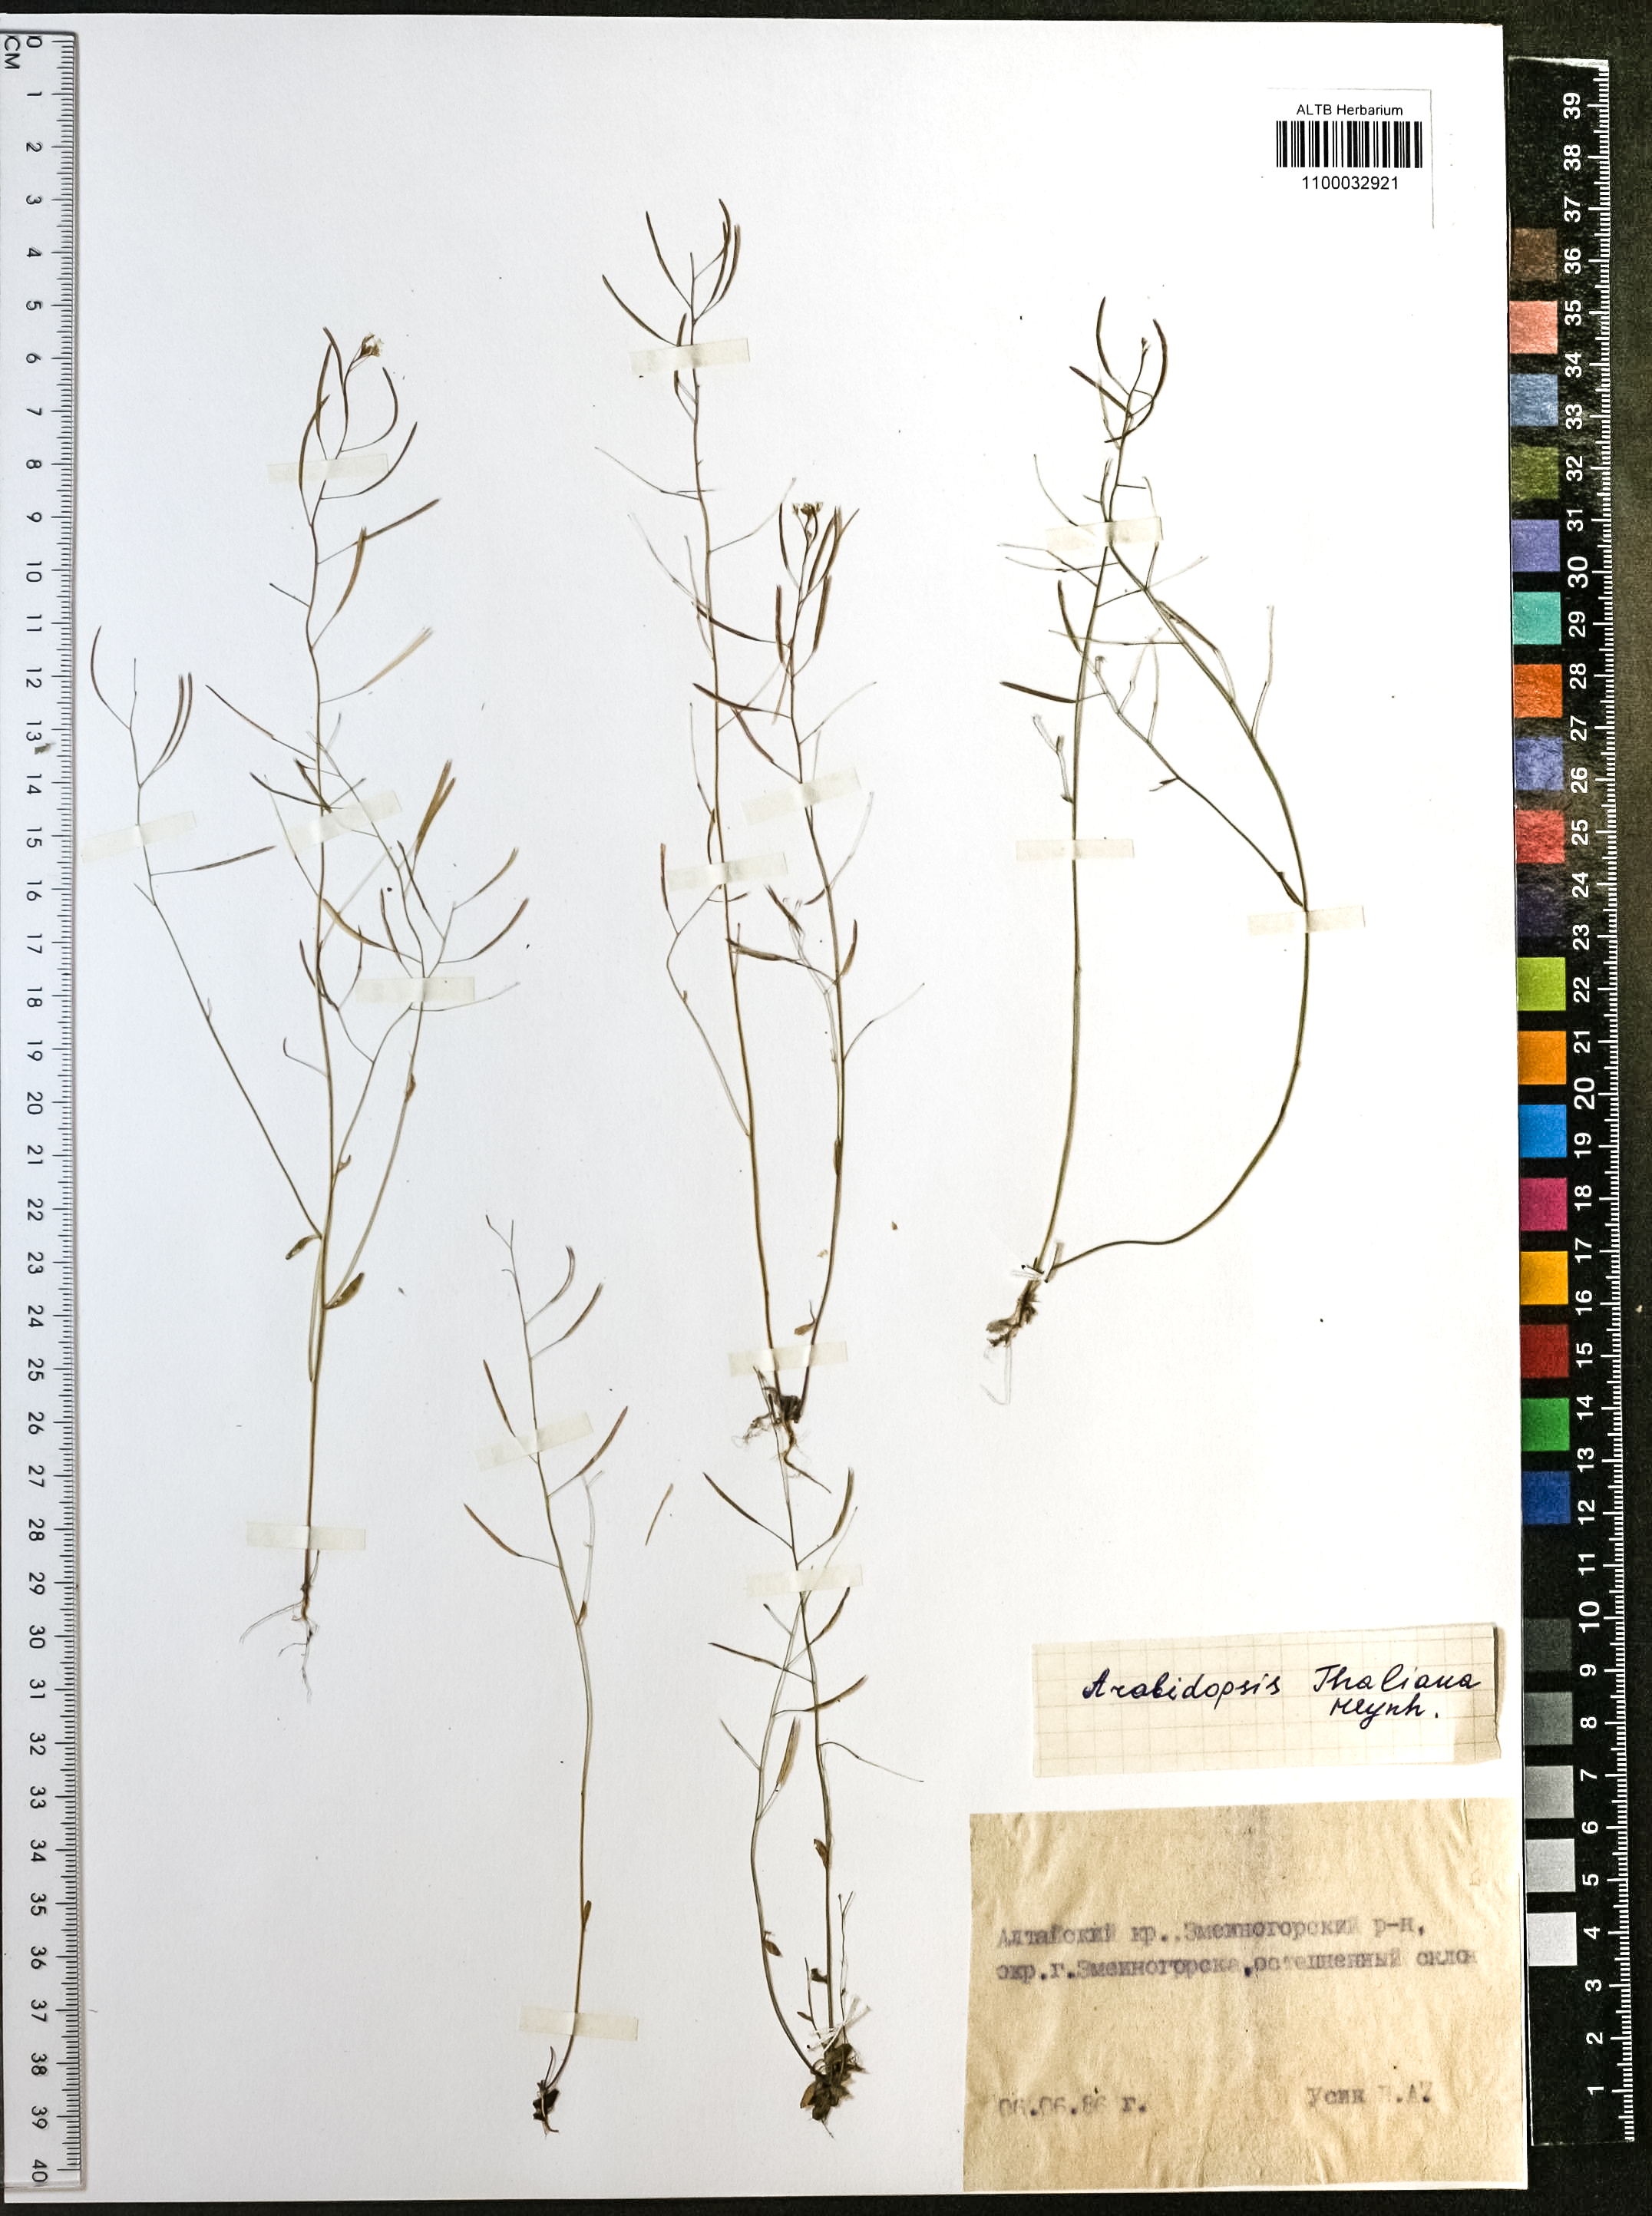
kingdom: Plantae
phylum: Tracheophyta
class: Magnoliopsida
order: Brassicales
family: Brassicaceae
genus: Arabidopsis
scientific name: Arabidopsis thaliana
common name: Thale cress
